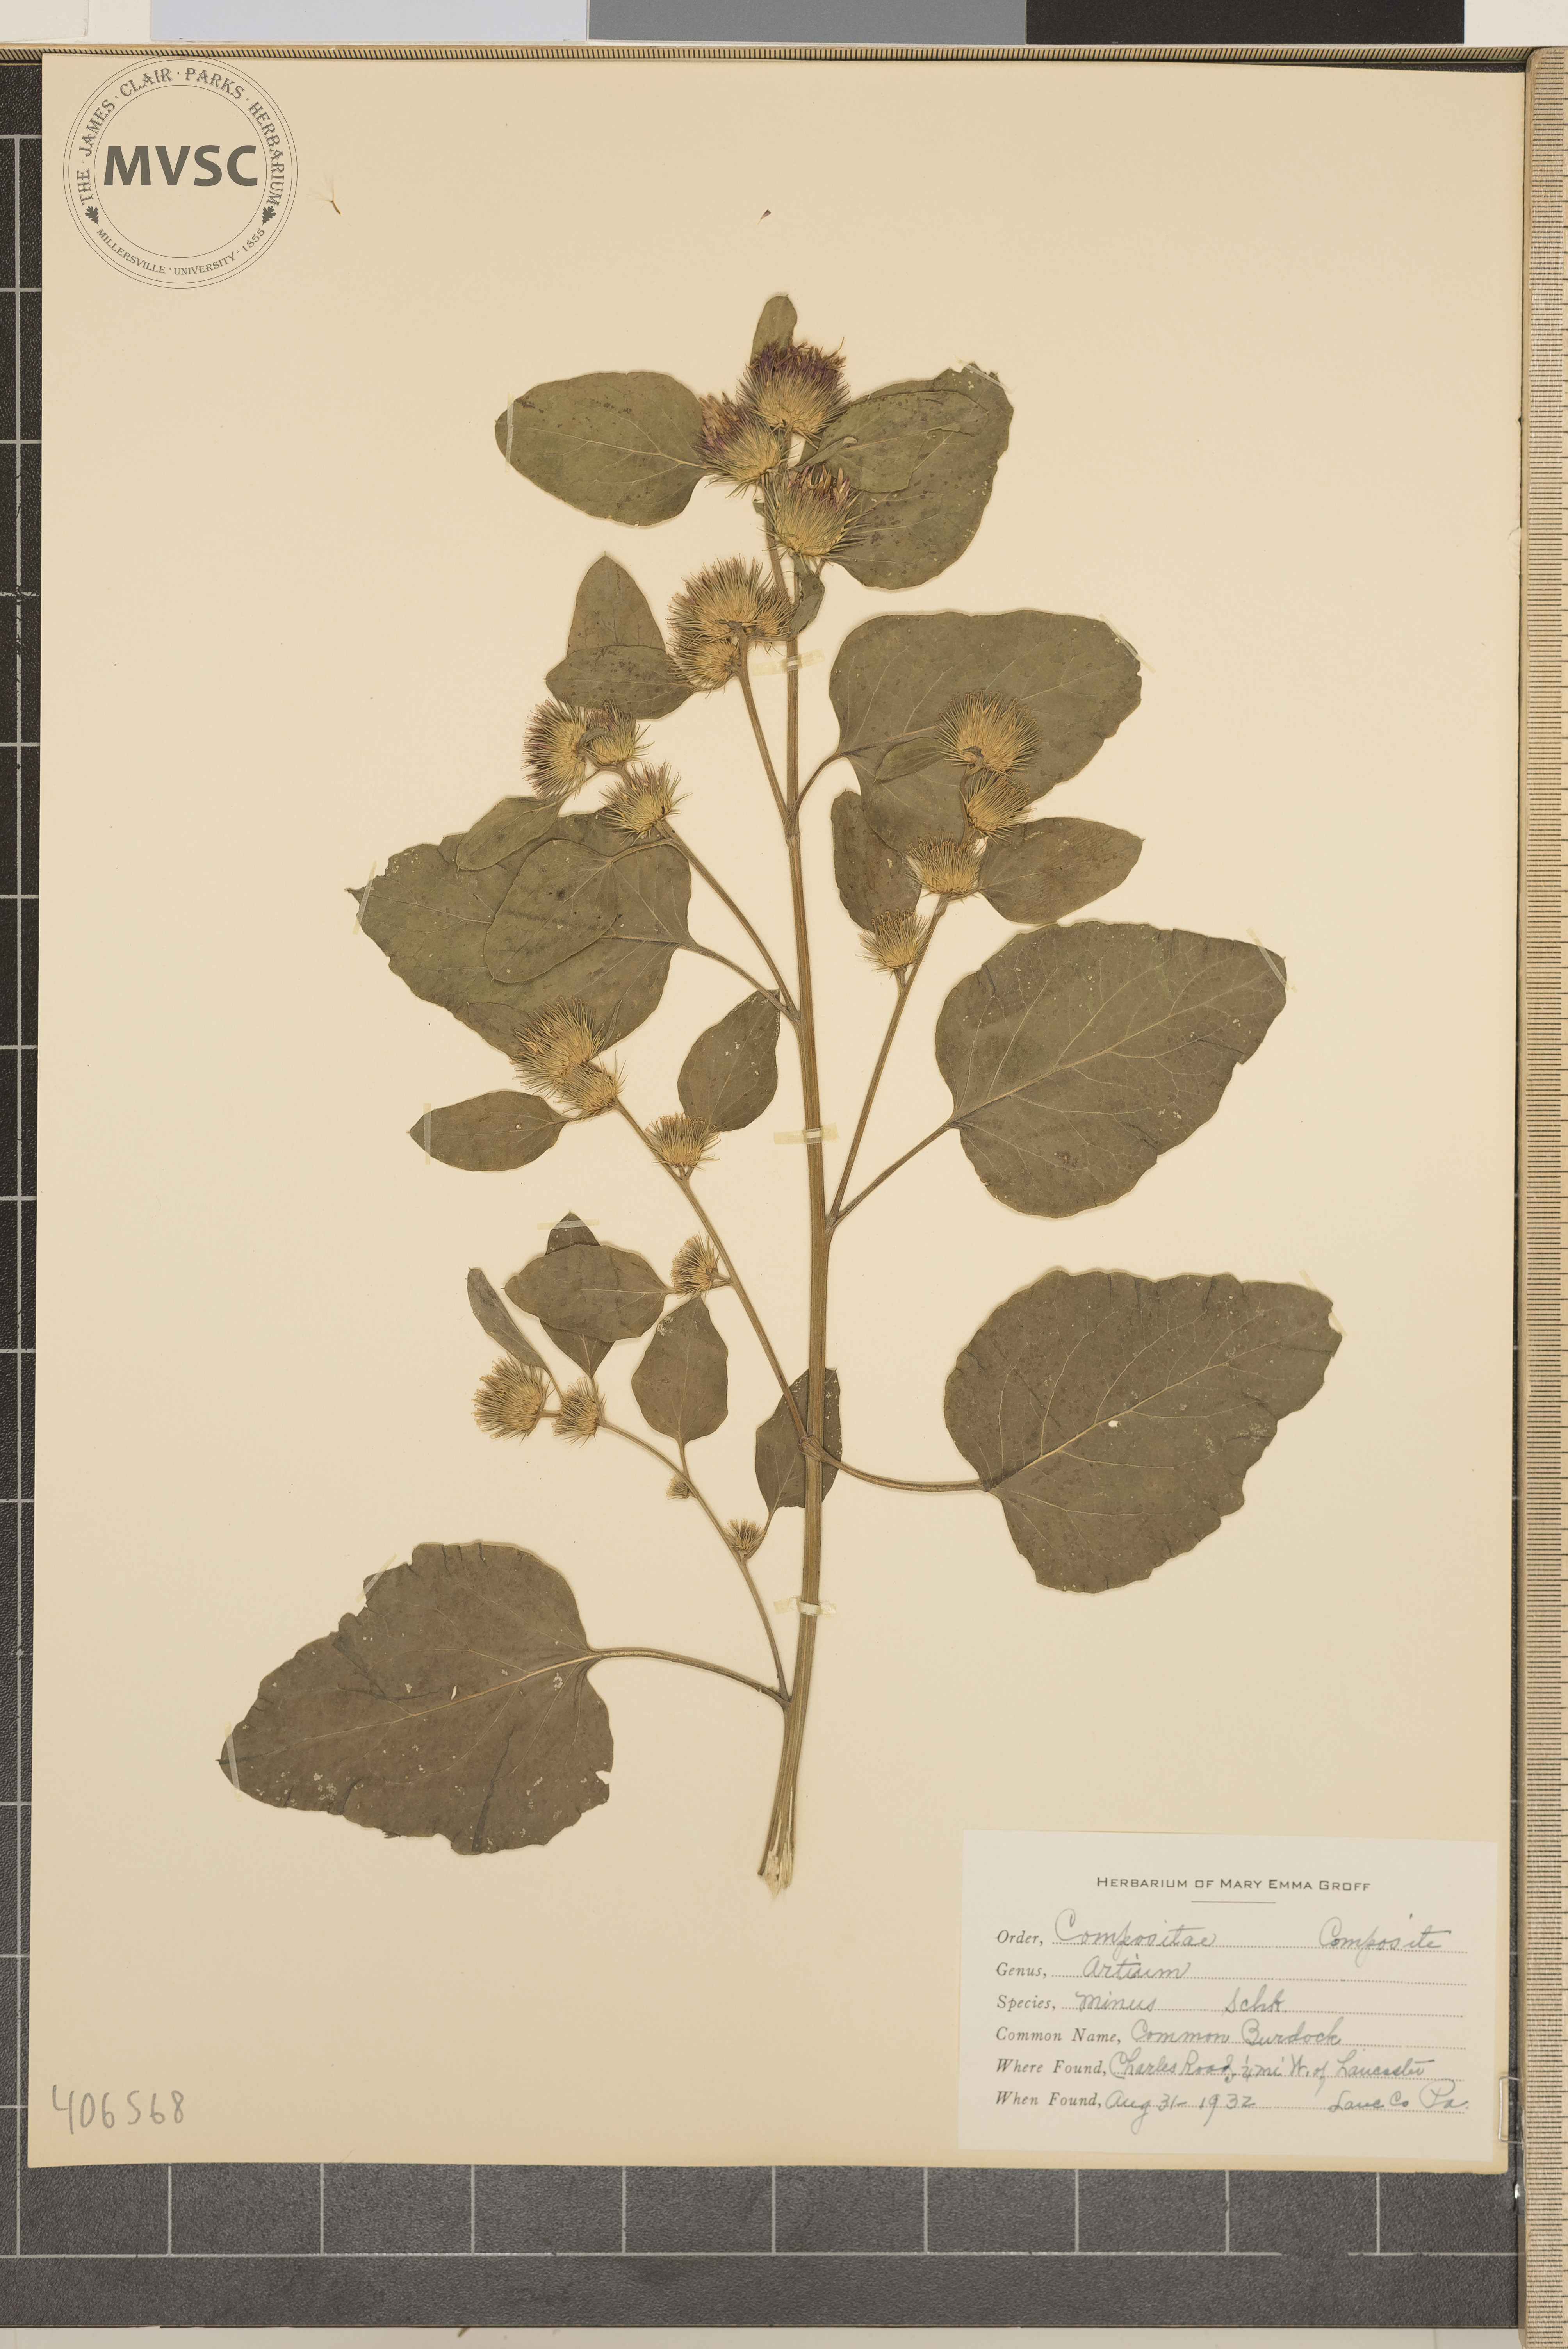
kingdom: Plantae
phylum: Tracheophyta
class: Magnoliopsida
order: Asterales
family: Asteraceae
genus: Arctium
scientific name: Arctium minus
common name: Common Burdock
